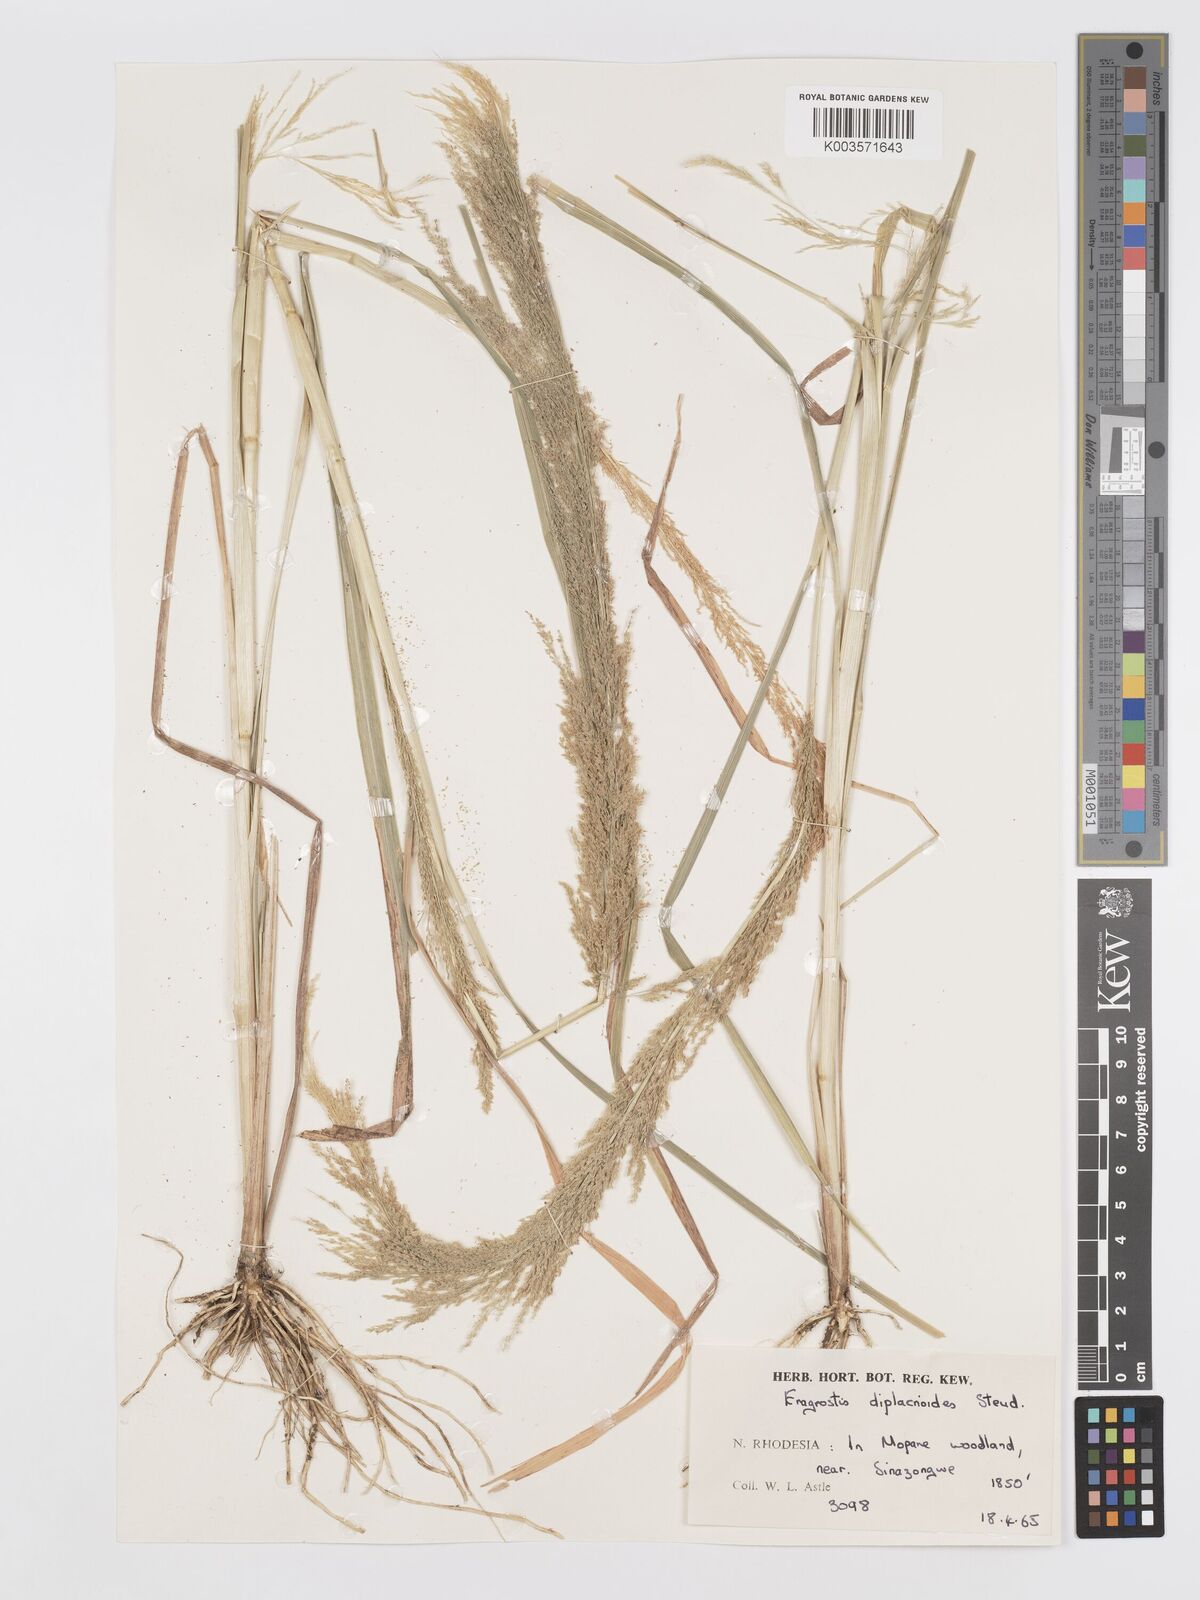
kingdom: Plantae
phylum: Tracheophyta
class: Liliopsida
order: Poales
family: Poaceae
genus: Eragrostis
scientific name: Eragrostis japonica
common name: Pond lovegrass
